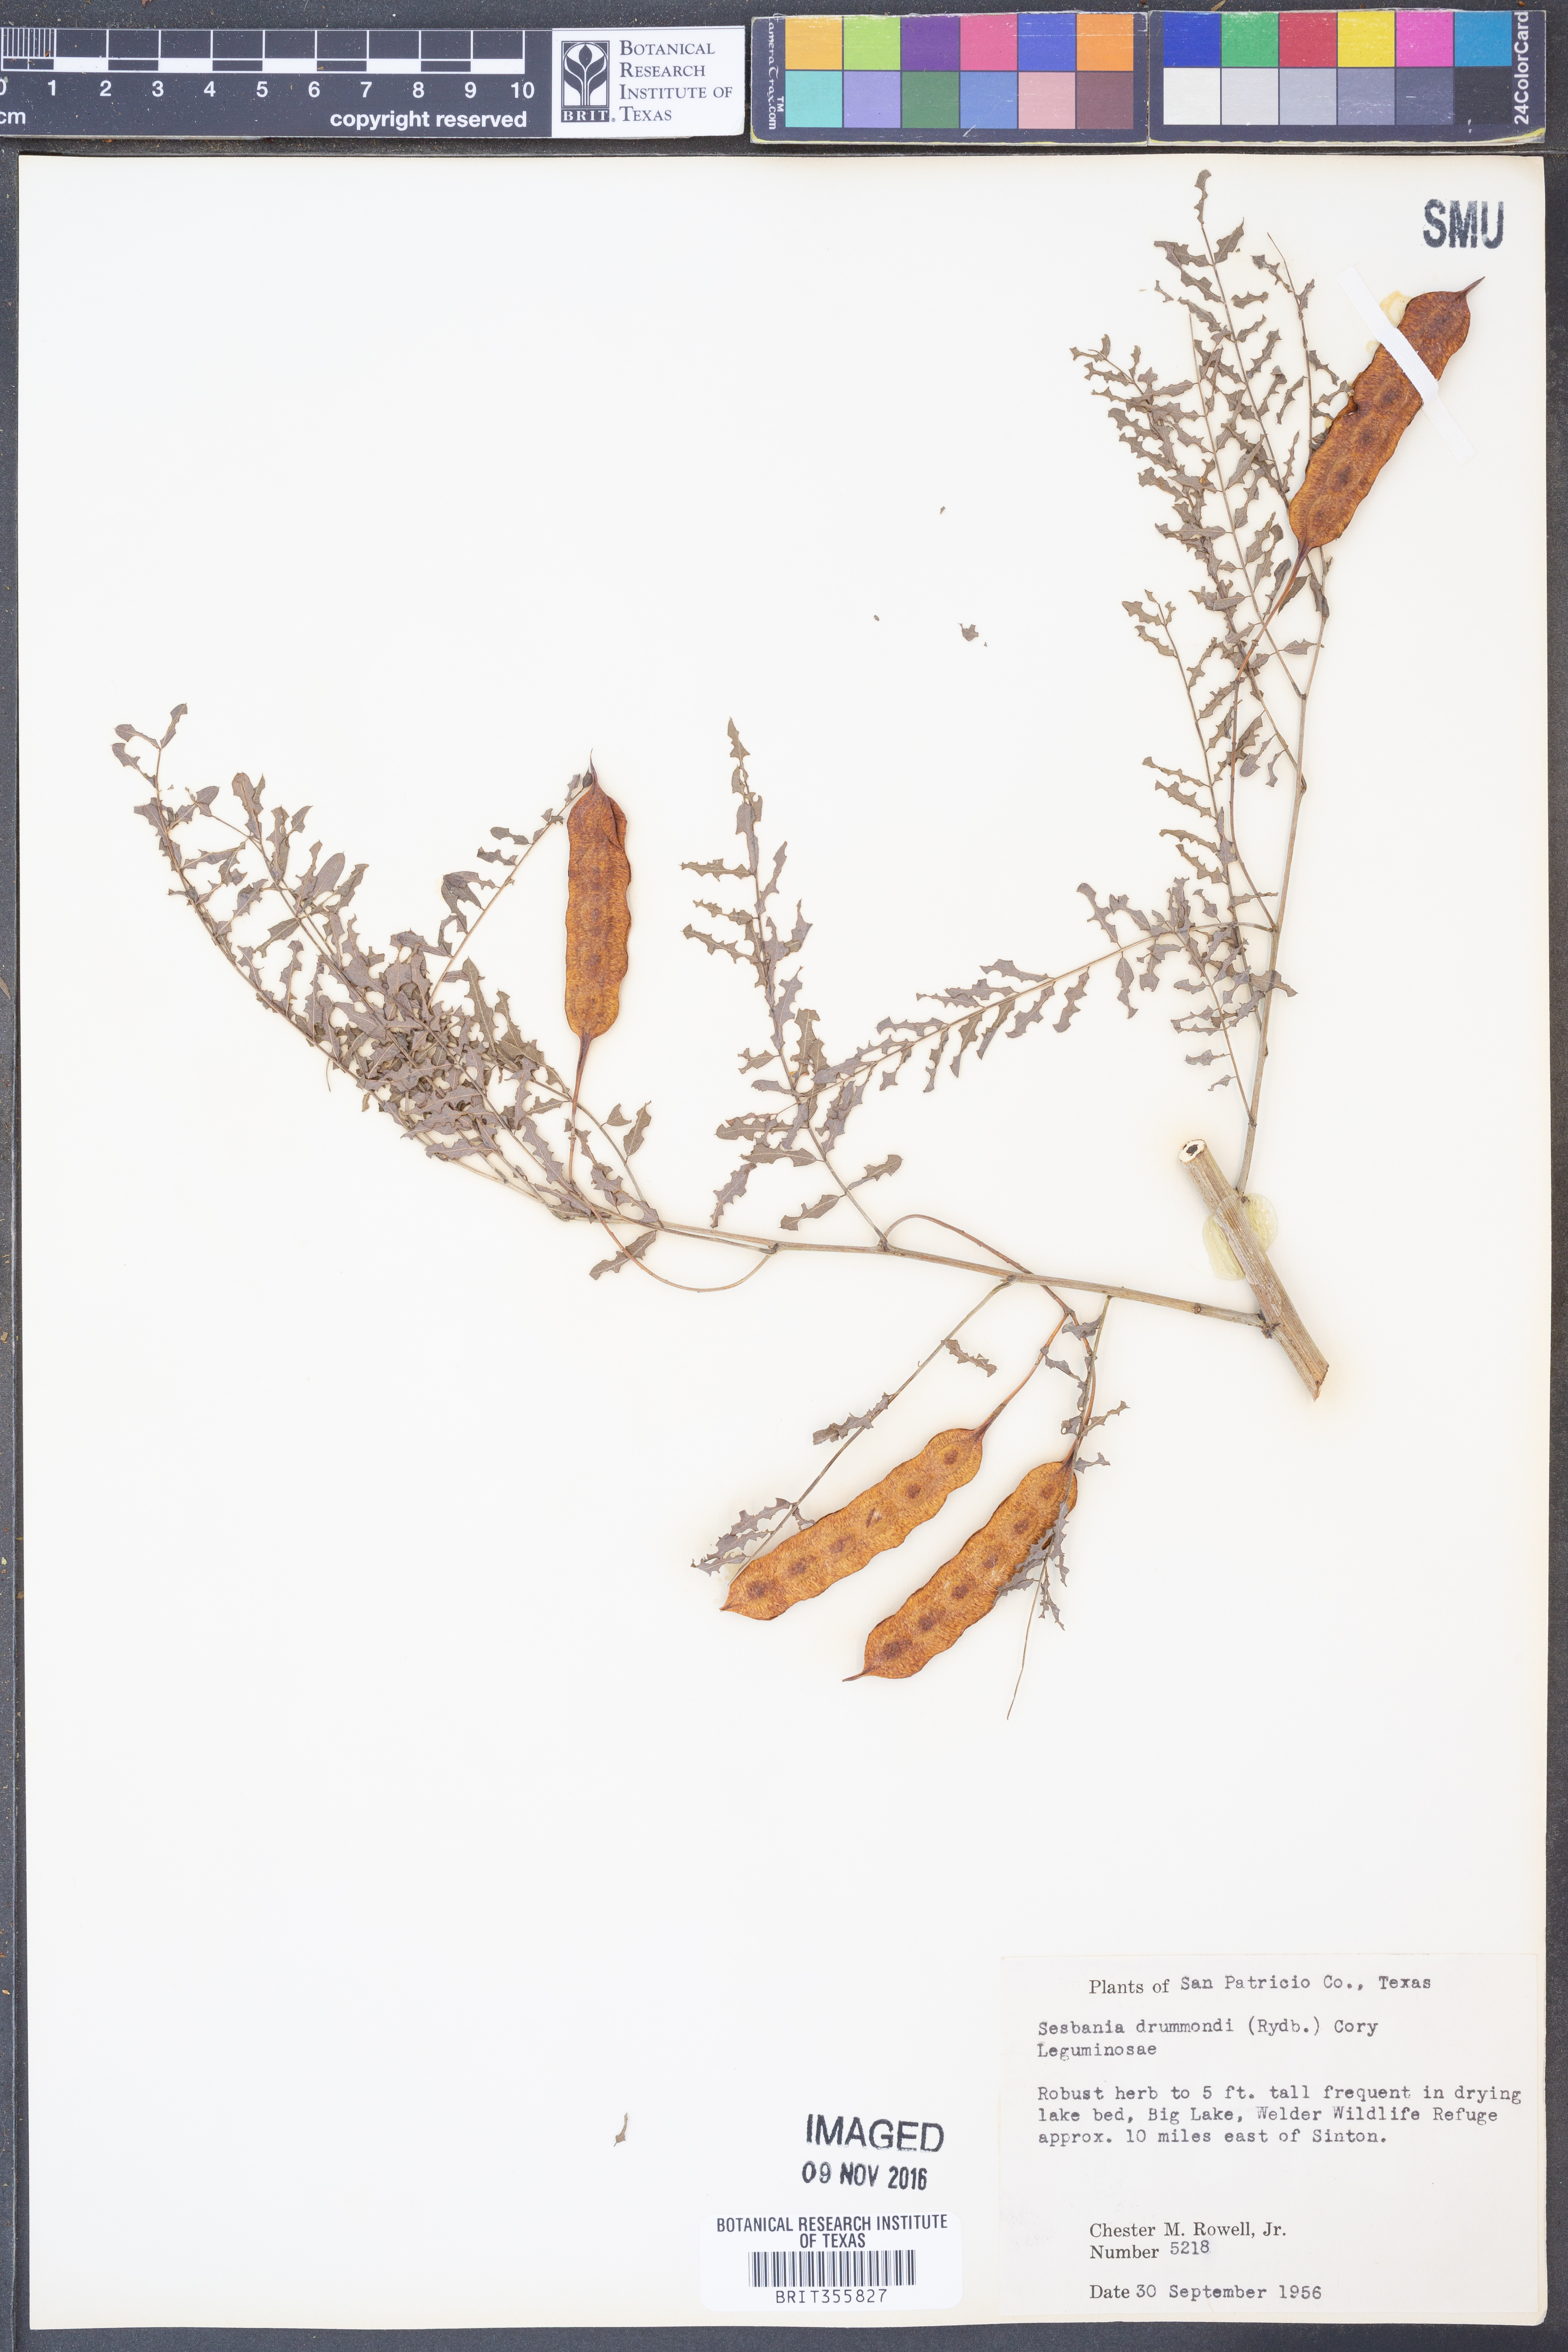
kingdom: Plantae
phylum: Tracheophyta
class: Magnoliopsida
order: Fabales
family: Fabaceae
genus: Sesbania
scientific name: Sesbania drummondii
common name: Poison-bean
